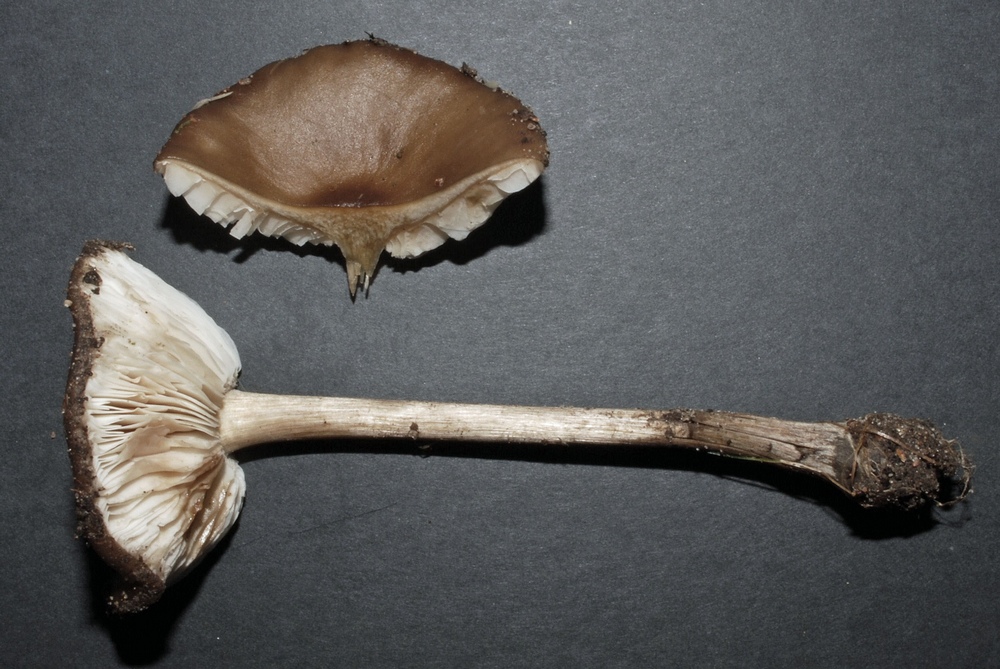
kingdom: Fungi
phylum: Basidiomycota
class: Agaricomycetes
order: Agaricales
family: Tricholomataceae
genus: Melanoleuca
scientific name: Melanoleuca polioleuca
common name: almindelig munkehat
